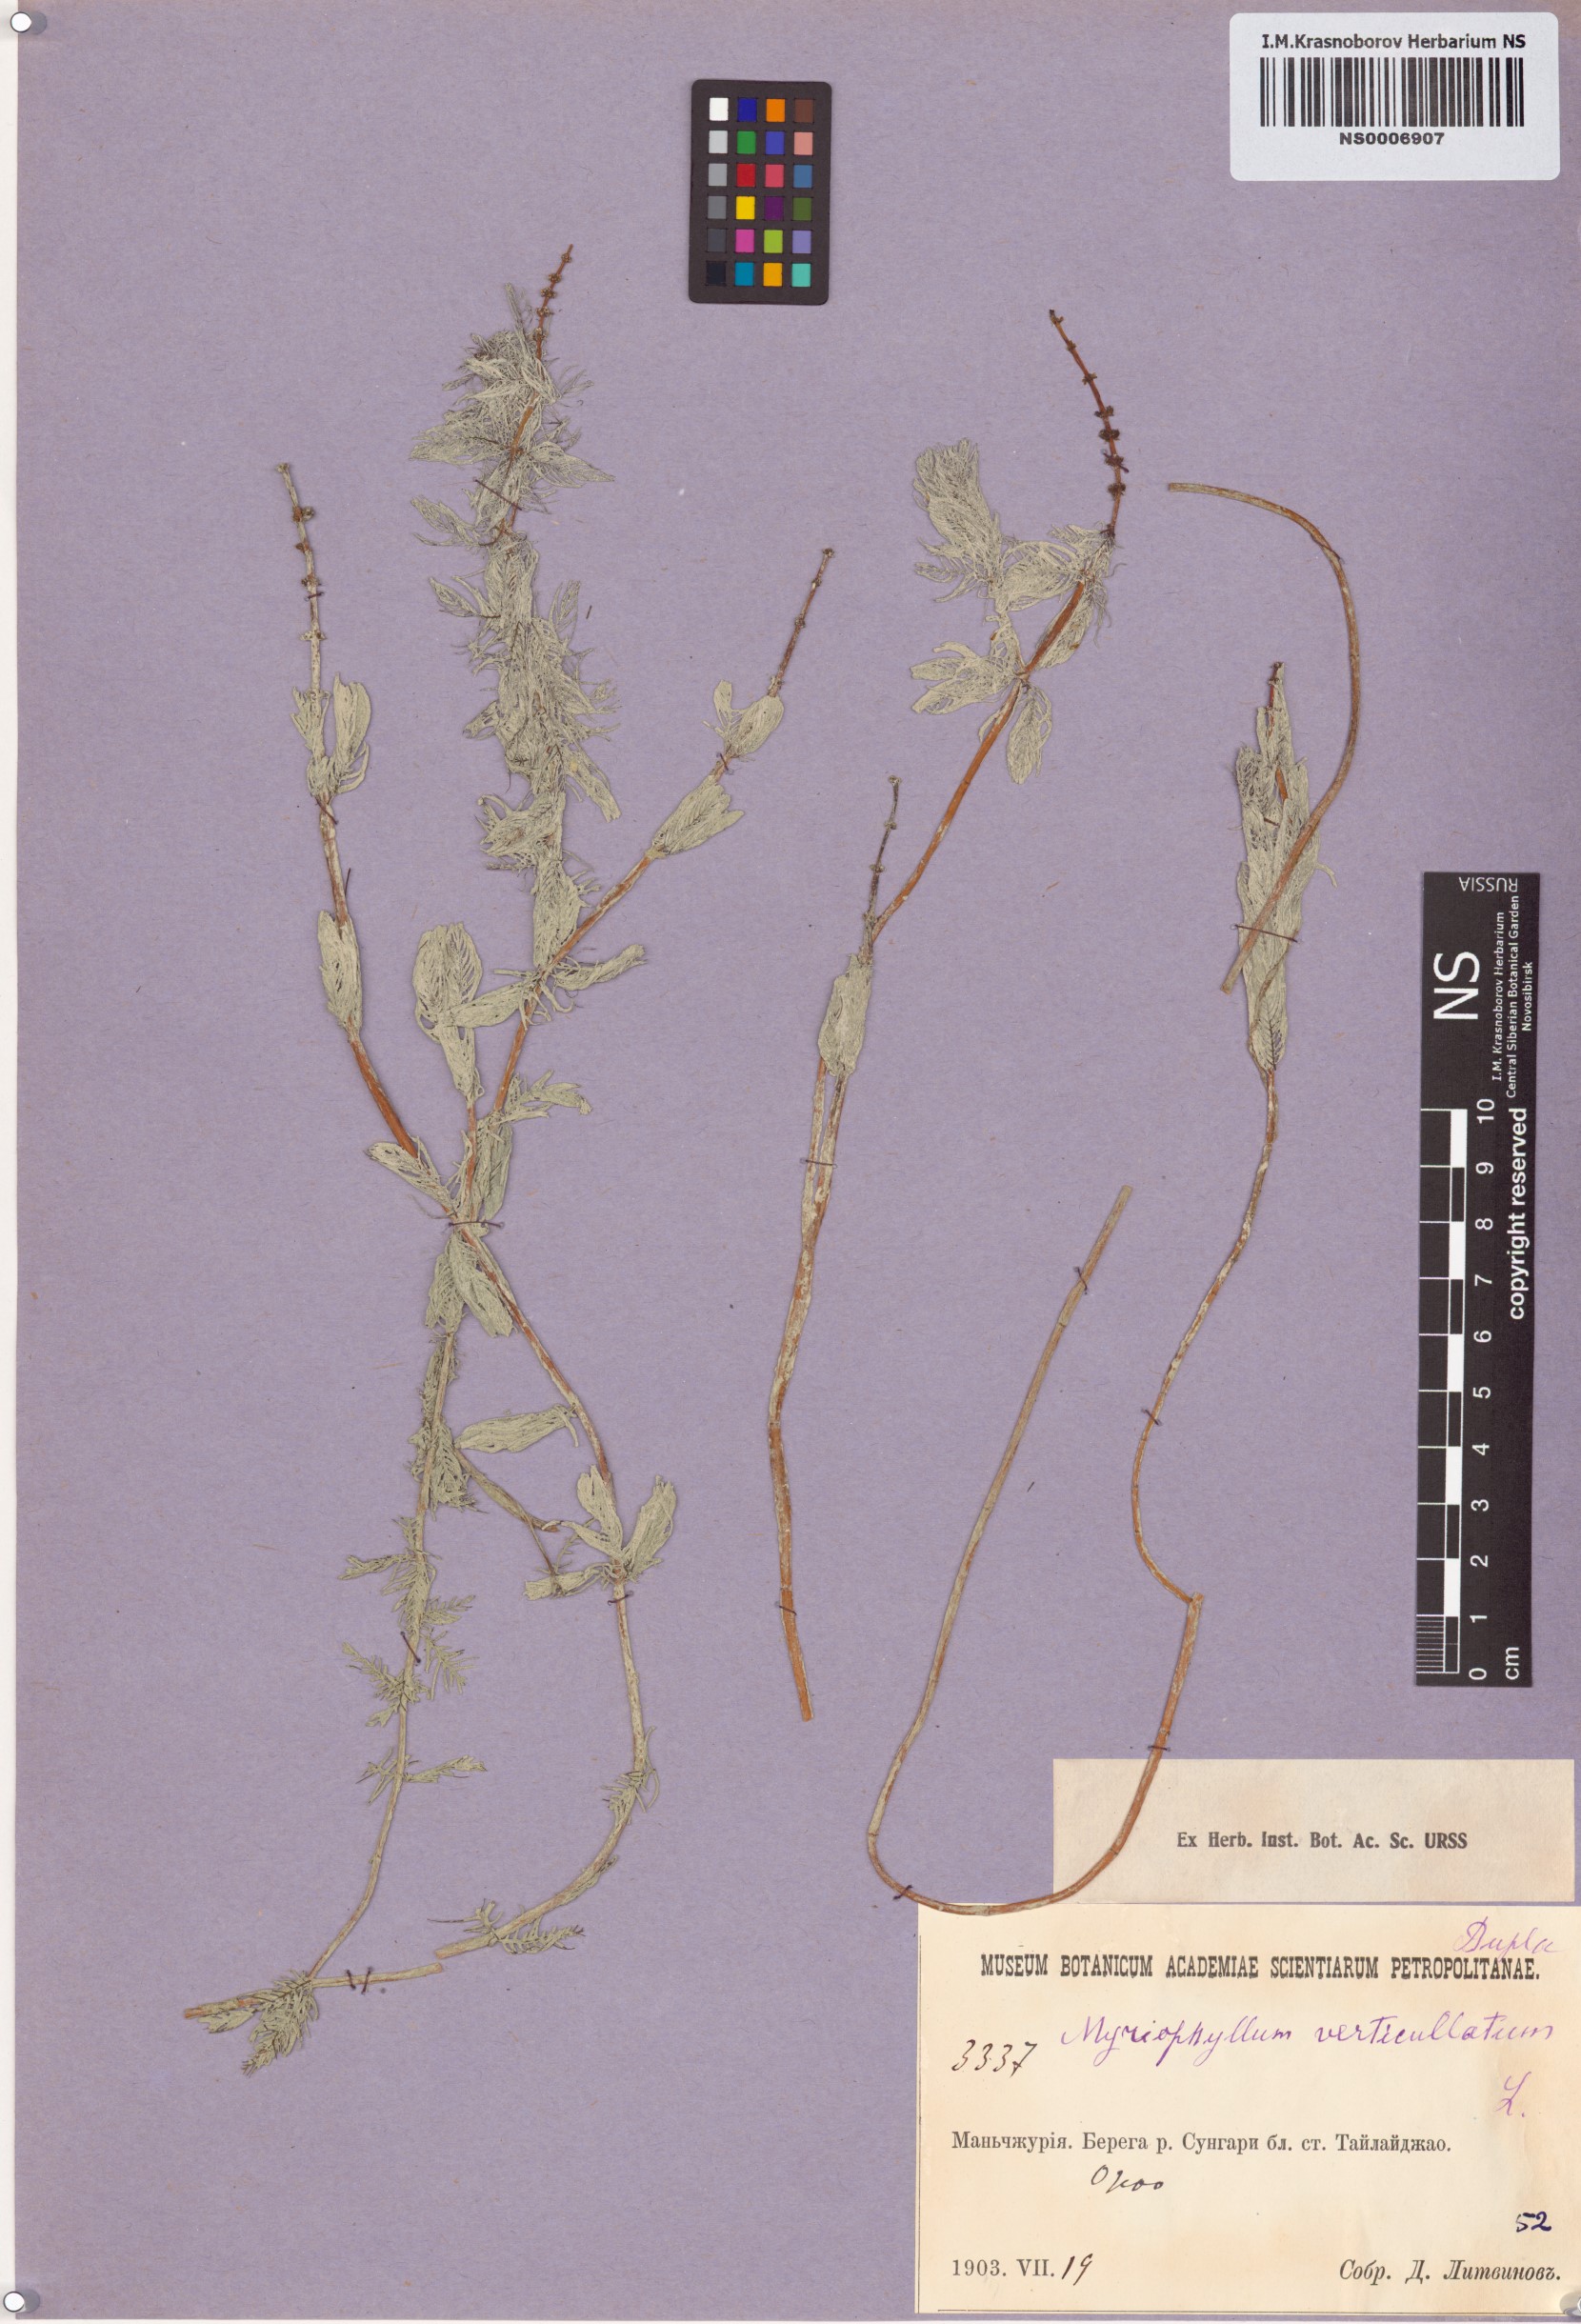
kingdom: Plantae
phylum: Tracheophyta
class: Magnoliopsida
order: Saxifragales
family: Haloragaceae
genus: Myriophyllum
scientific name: Myriophyllum verticillatum
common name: Whorled water-milfoil
